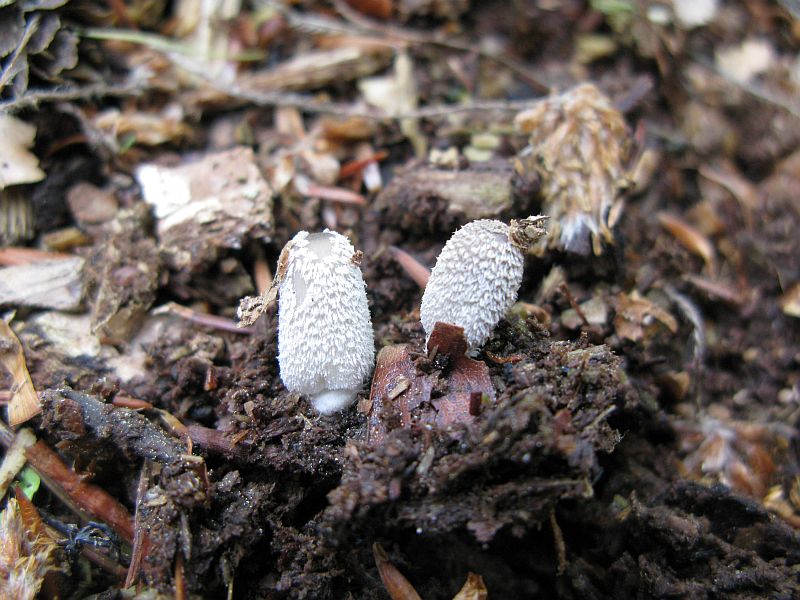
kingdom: Fungi
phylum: Basidiomycota
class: Agaricomycetes
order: Agaricales
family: Psathyrellaceae
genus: Coprinopsis
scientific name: Coprinopsis lagopus
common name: dunstokket blækhat
